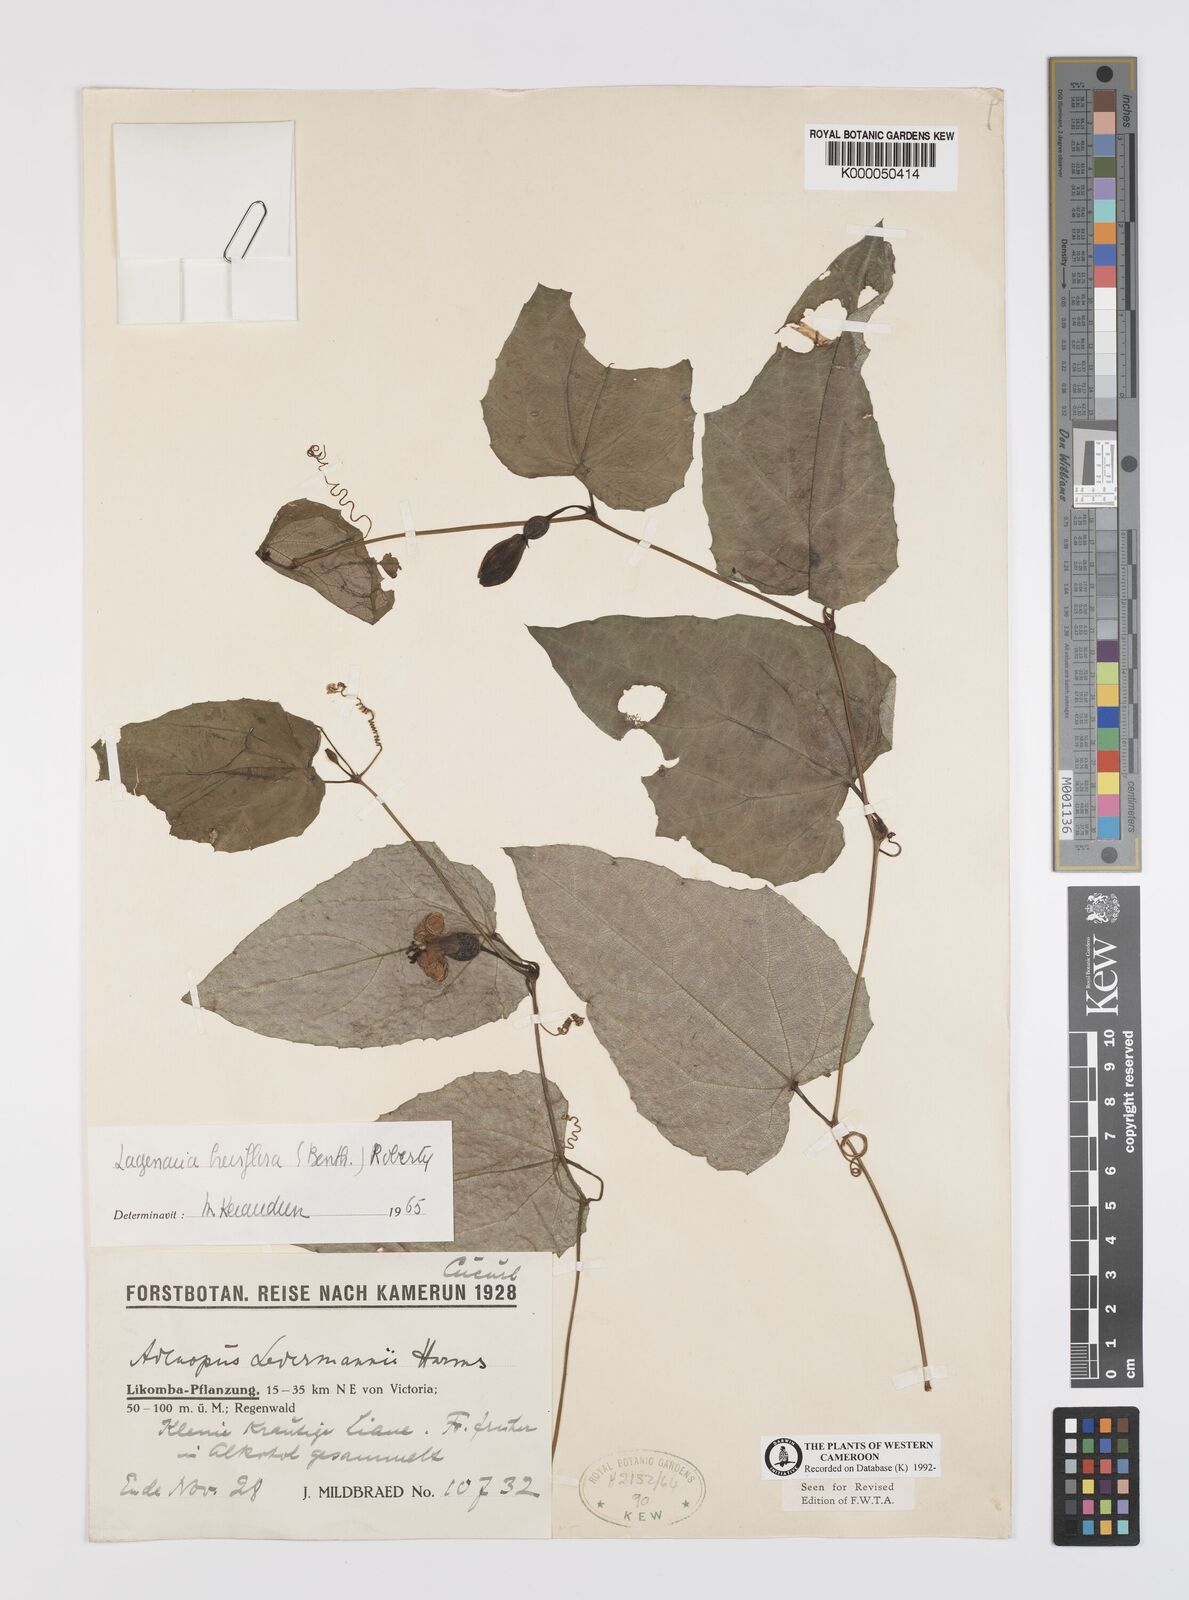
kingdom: Plantae
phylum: Tracheophyta
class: Magnoliopsida
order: Cucurbitales
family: Cucurbitaceae
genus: Lagenaria
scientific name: Lagenaria breviflora
